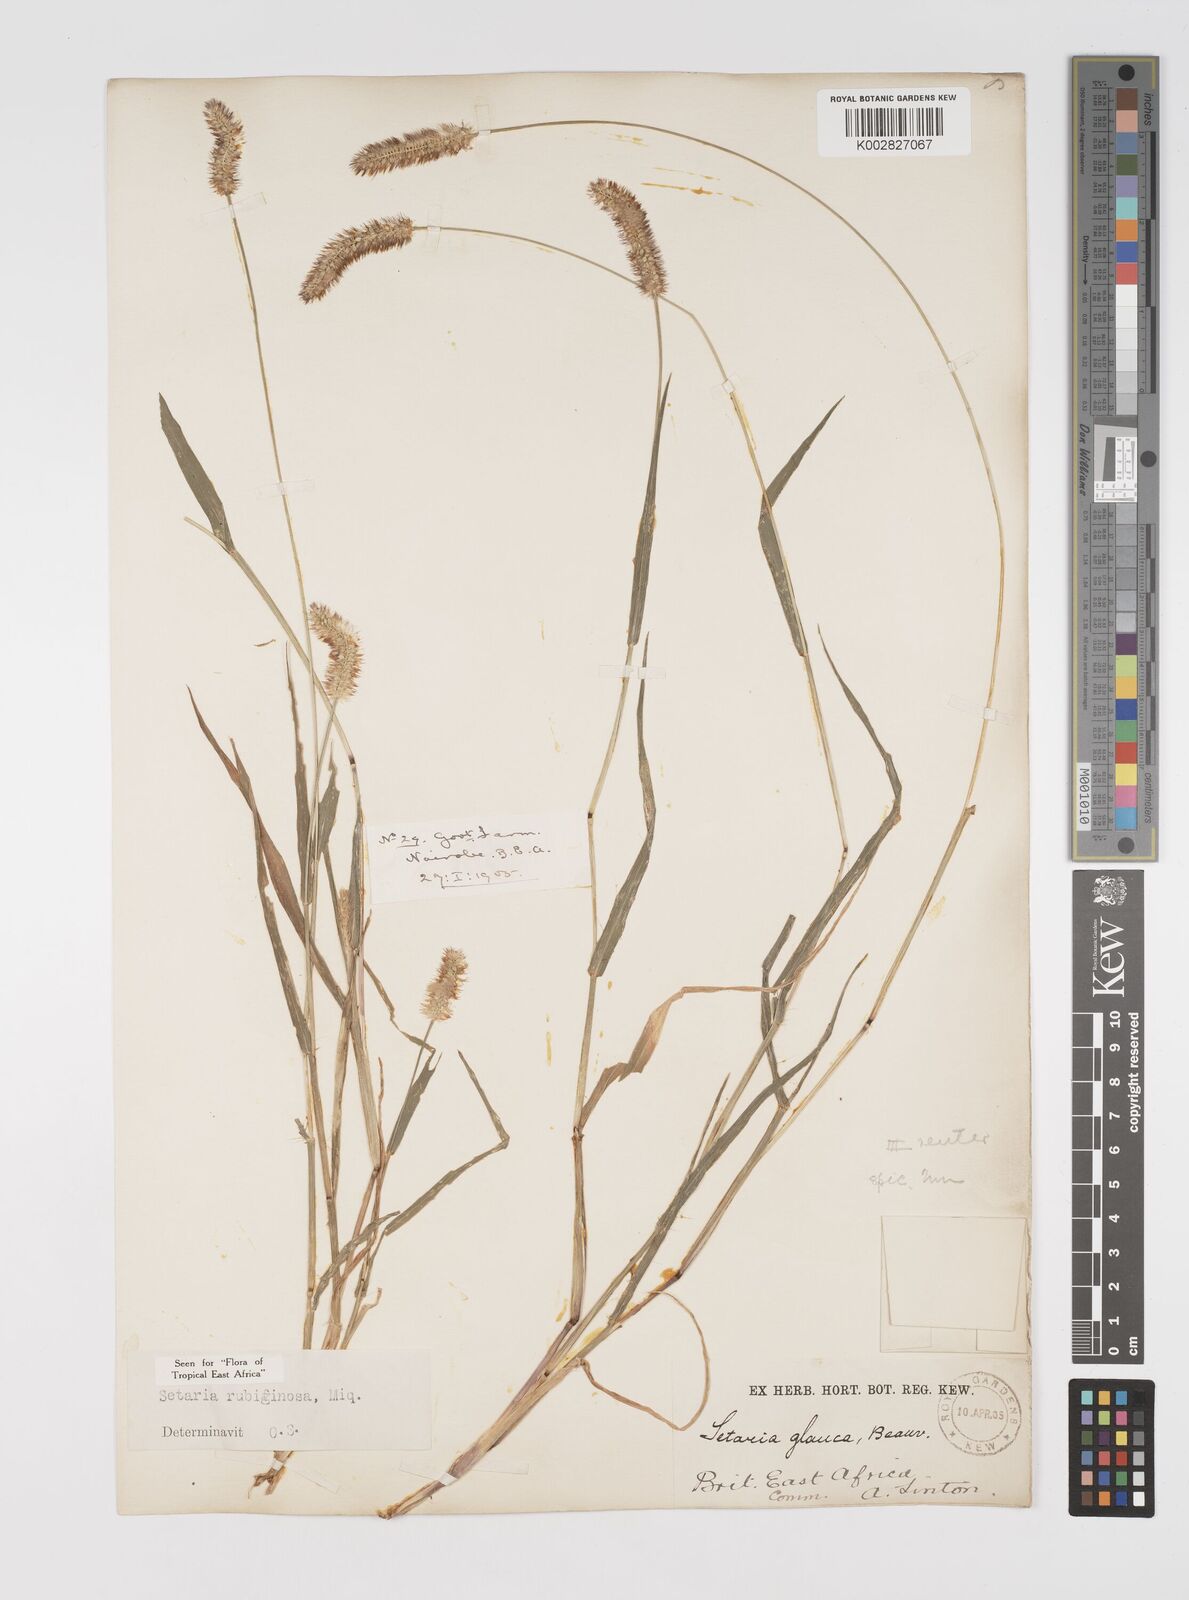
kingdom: Plantae
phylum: Tracheophyta
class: Liliopsida
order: Poales
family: Poaceae
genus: Setaria
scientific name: Setaria pumila
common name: Yellow bristle-grass
